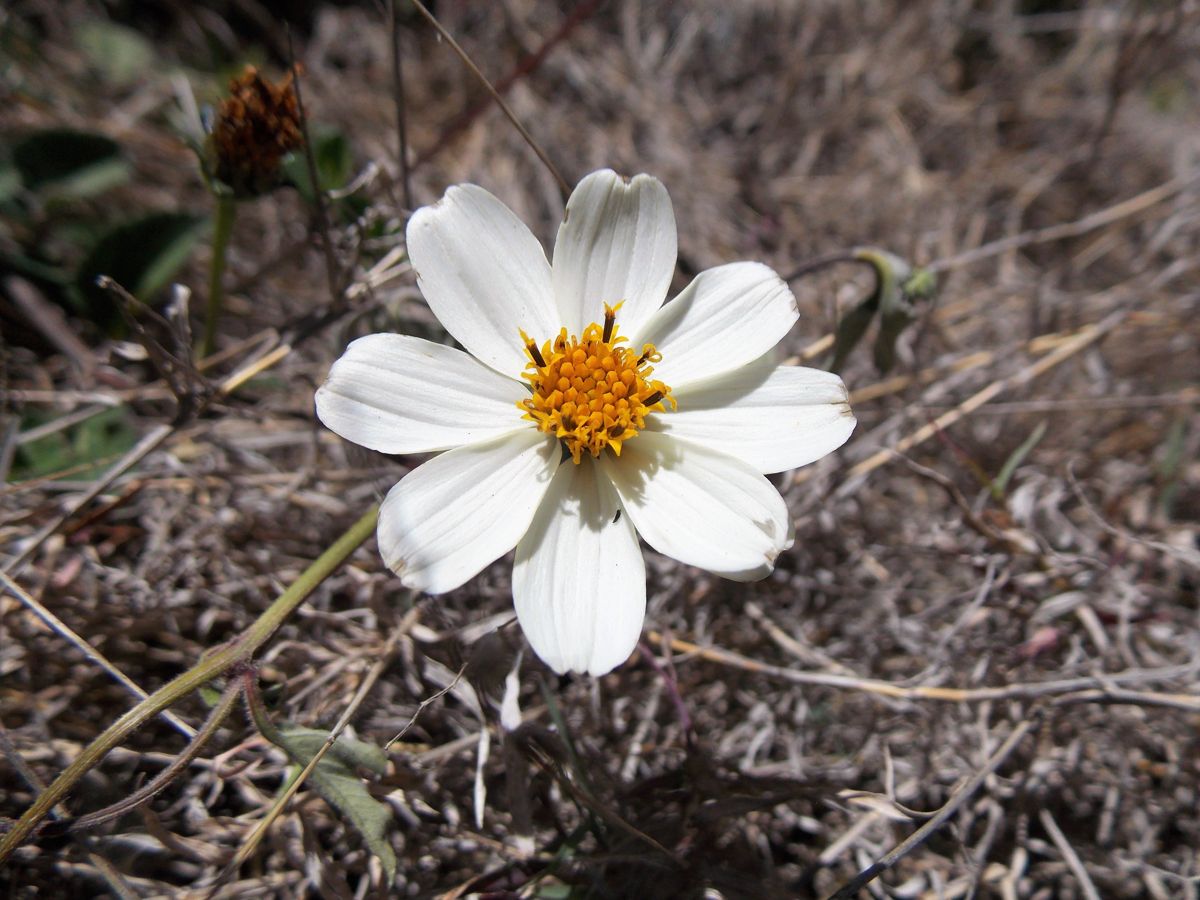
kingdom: Plantae
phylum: Tracheophyta
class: Magnoliopsida
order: Asterales
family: Asteraceae
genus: Bidens
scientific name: Bidens alba
